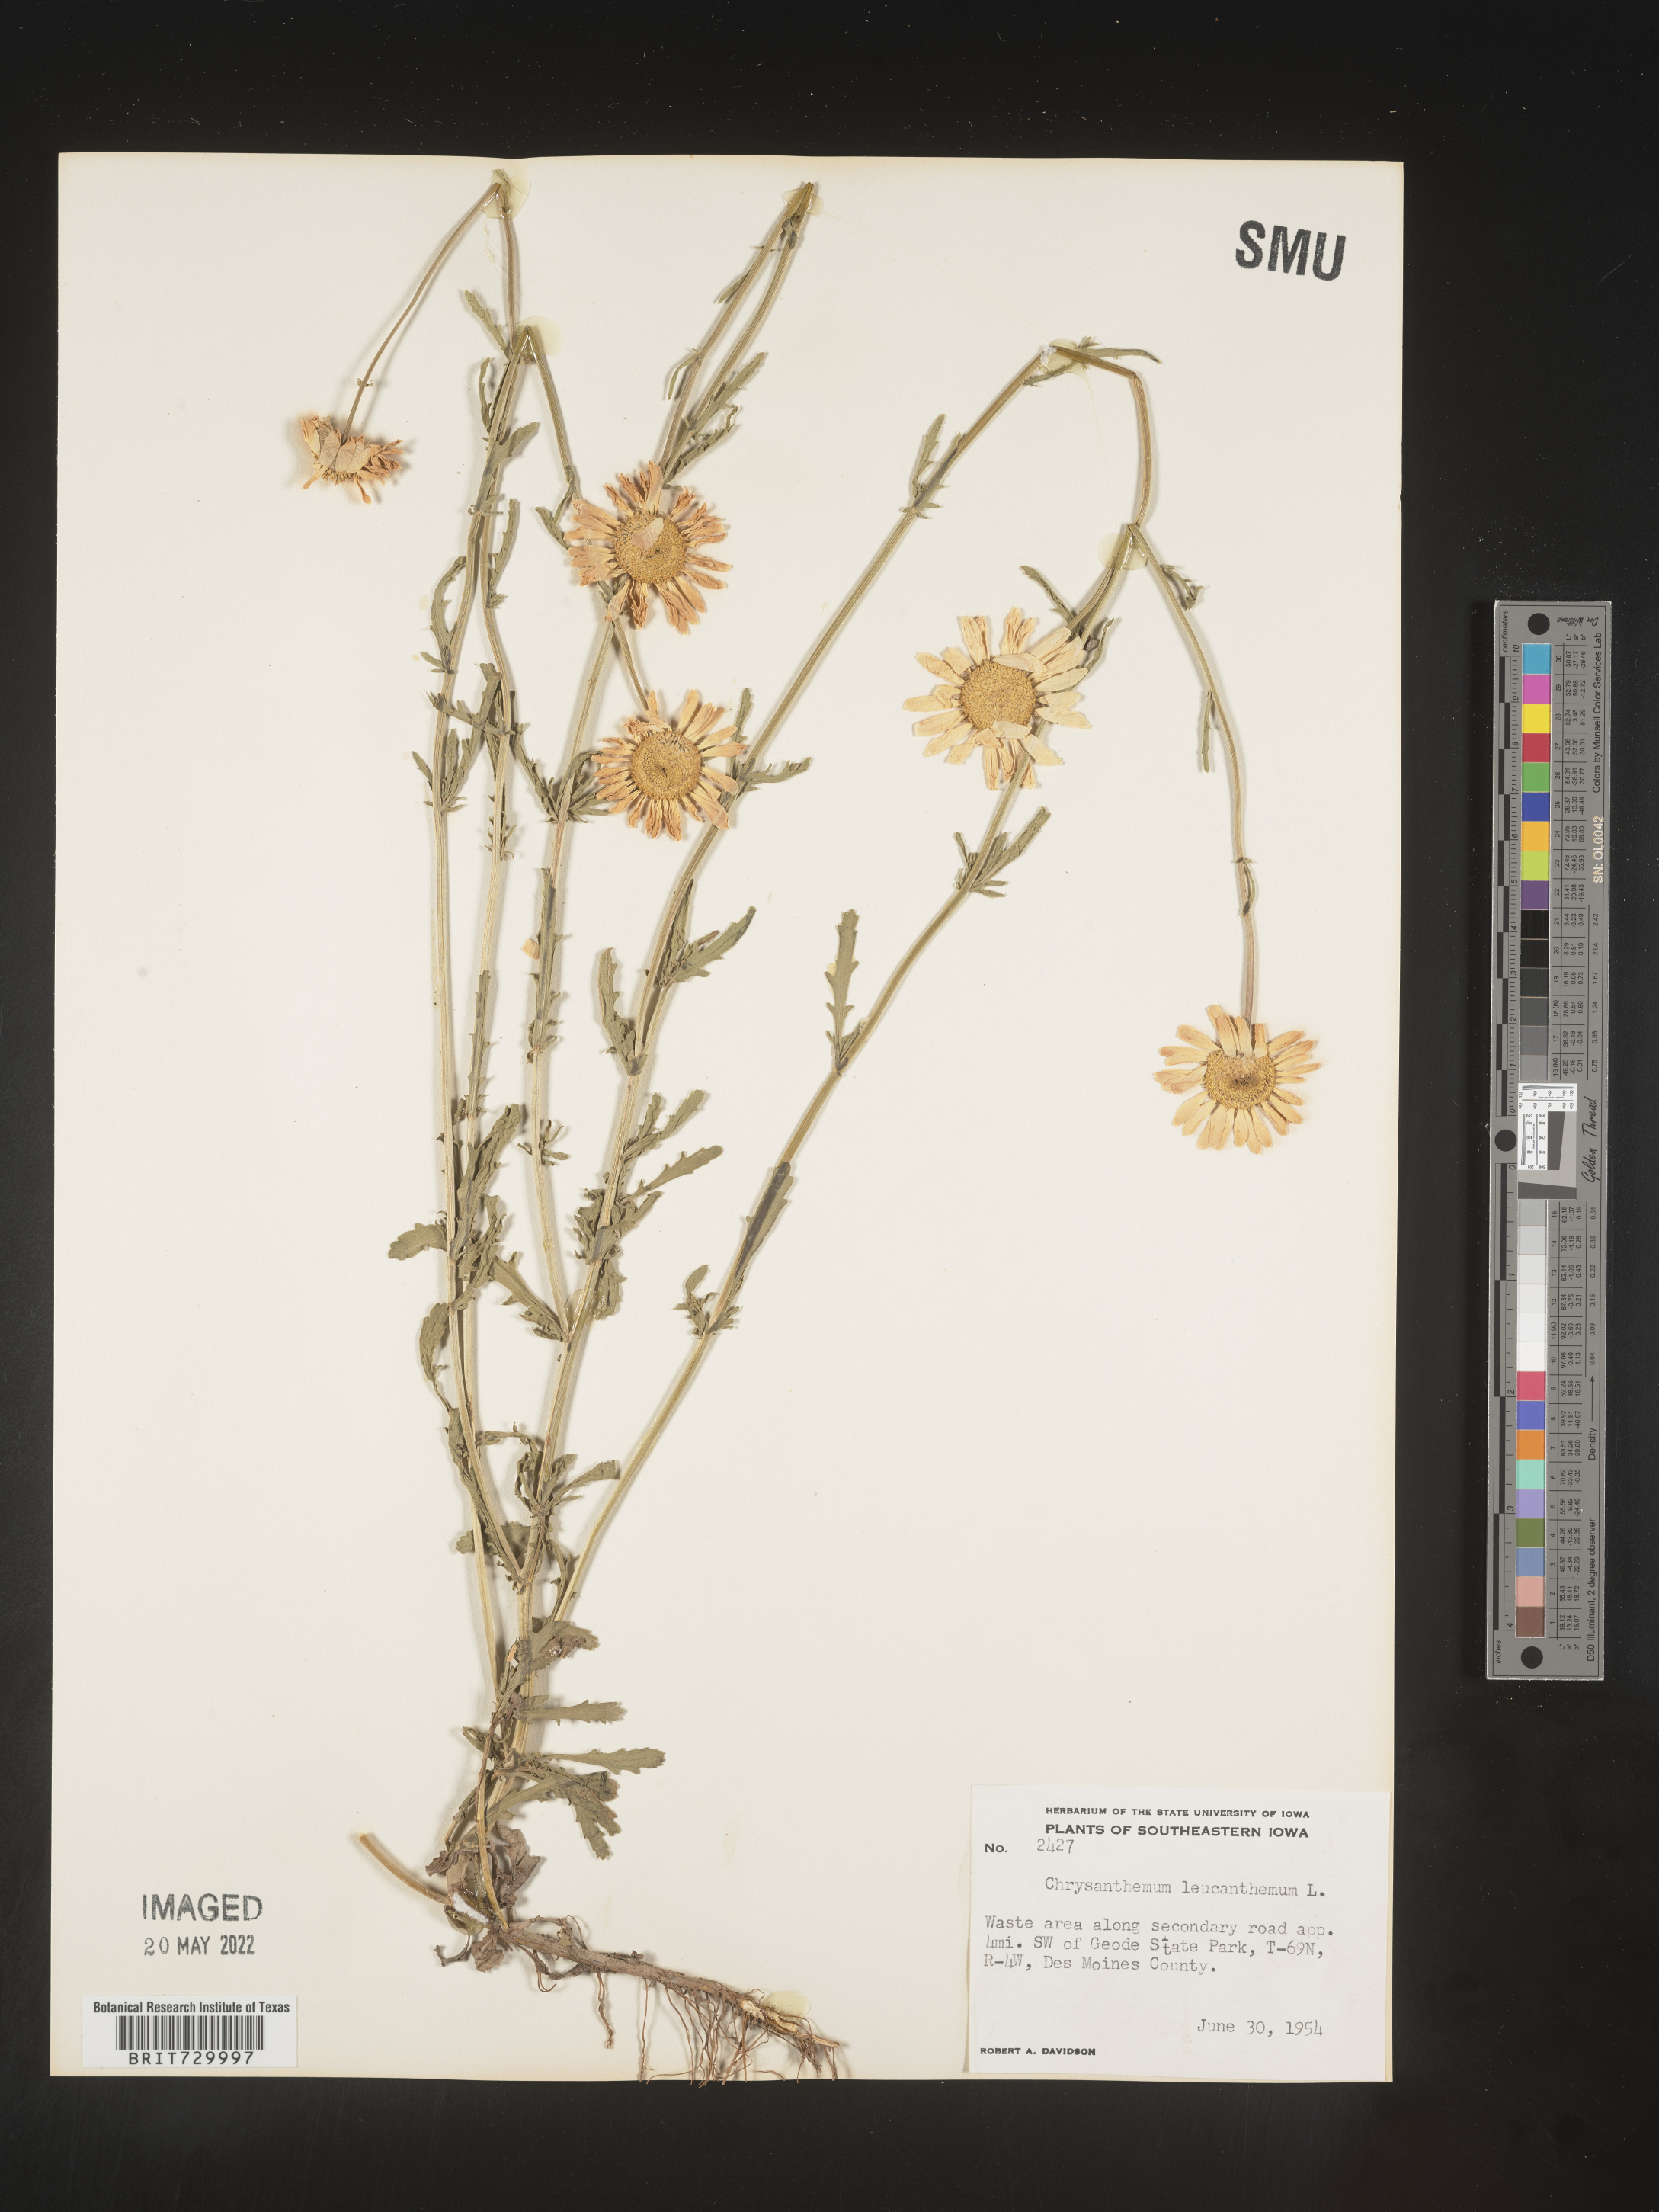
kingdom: Plantae
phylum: Tracheophyta
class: Magnoliopsida
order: Asterales
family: Asteraceae
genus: Leucanthemum
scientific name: Leucanthemum vulgare
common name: Oxeye daisy
